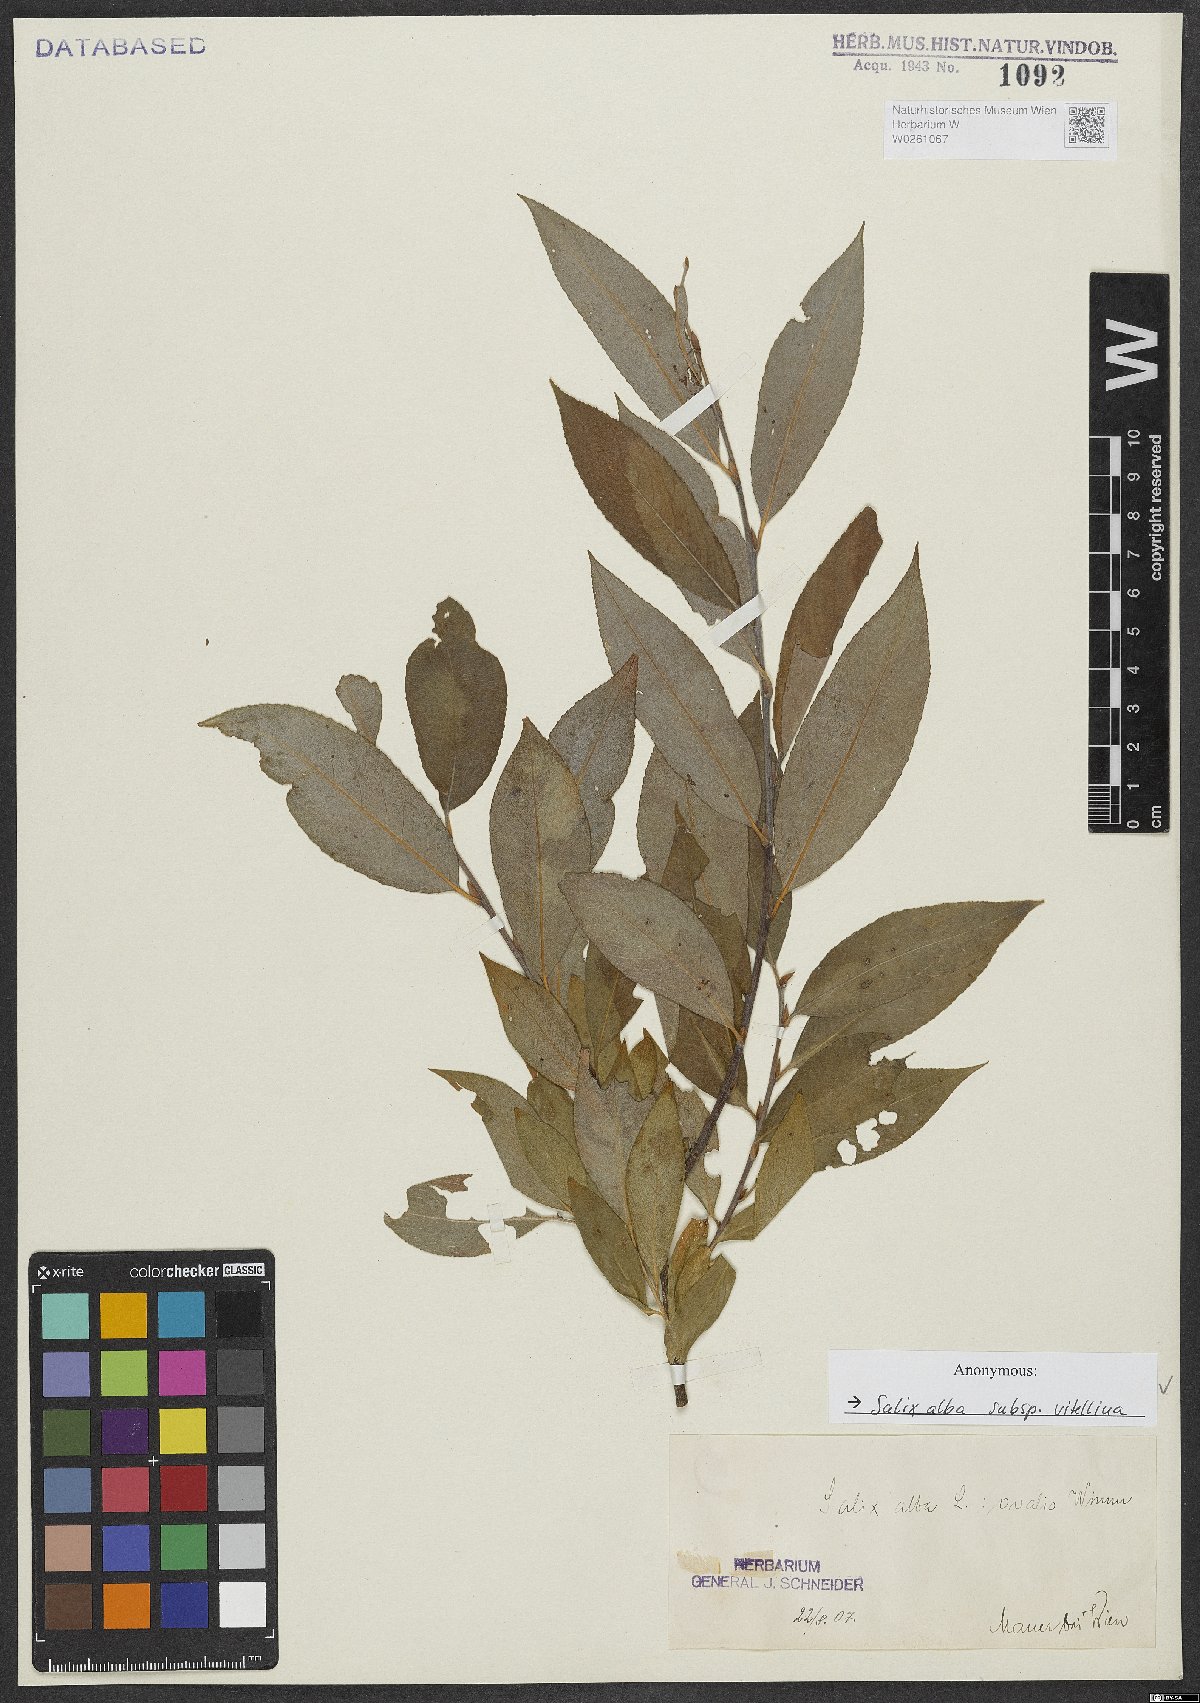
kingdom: Plantae
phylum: Tracheophyta
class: Magnoliopsida
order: Malpighiales
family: Salicaceae
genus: Salix
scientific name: Salix alba
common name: White willow
